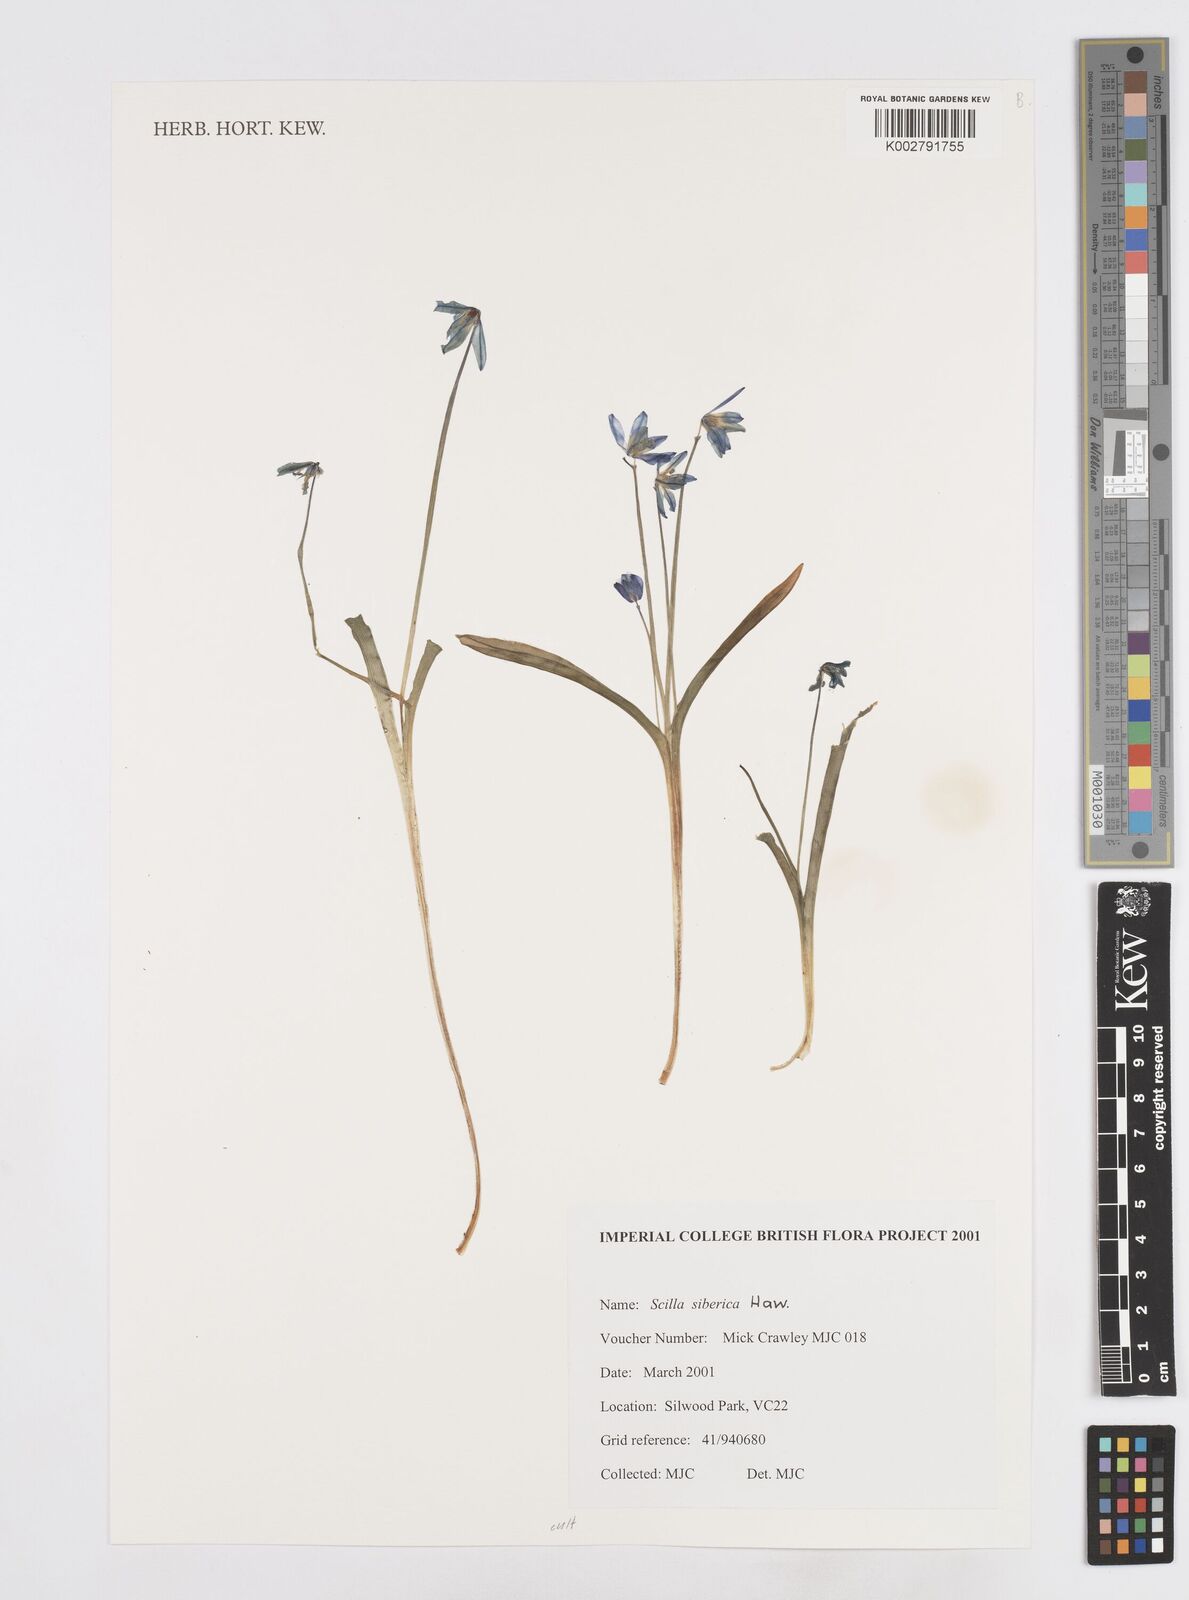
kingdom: Plantae
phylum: Tracheophyta
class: Liliopsida
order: Asparagales
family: Asparagaceae
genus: Scilla
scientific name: Scilla siberica
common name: Siberian squill
